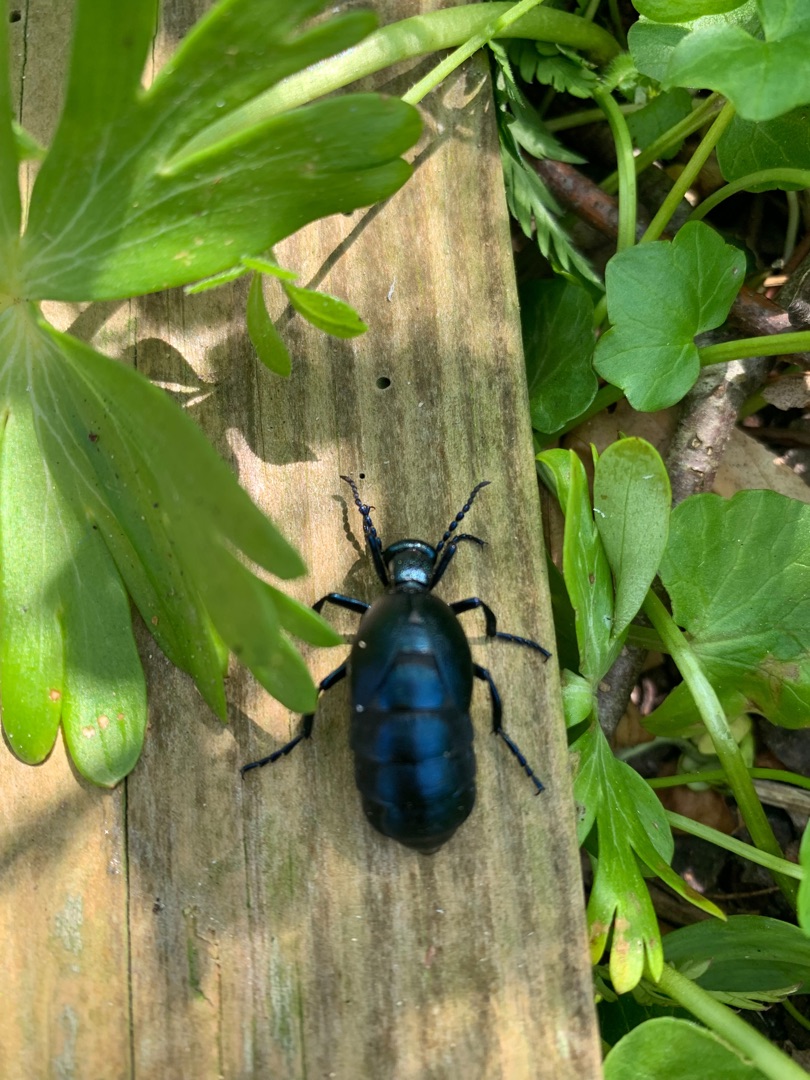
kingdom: Animalia
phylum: Arthropoda
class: Insecta
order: Coleoptera
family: Meloidae
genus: Meloe
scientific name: Meloe violaceus
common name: Blå oliebille
